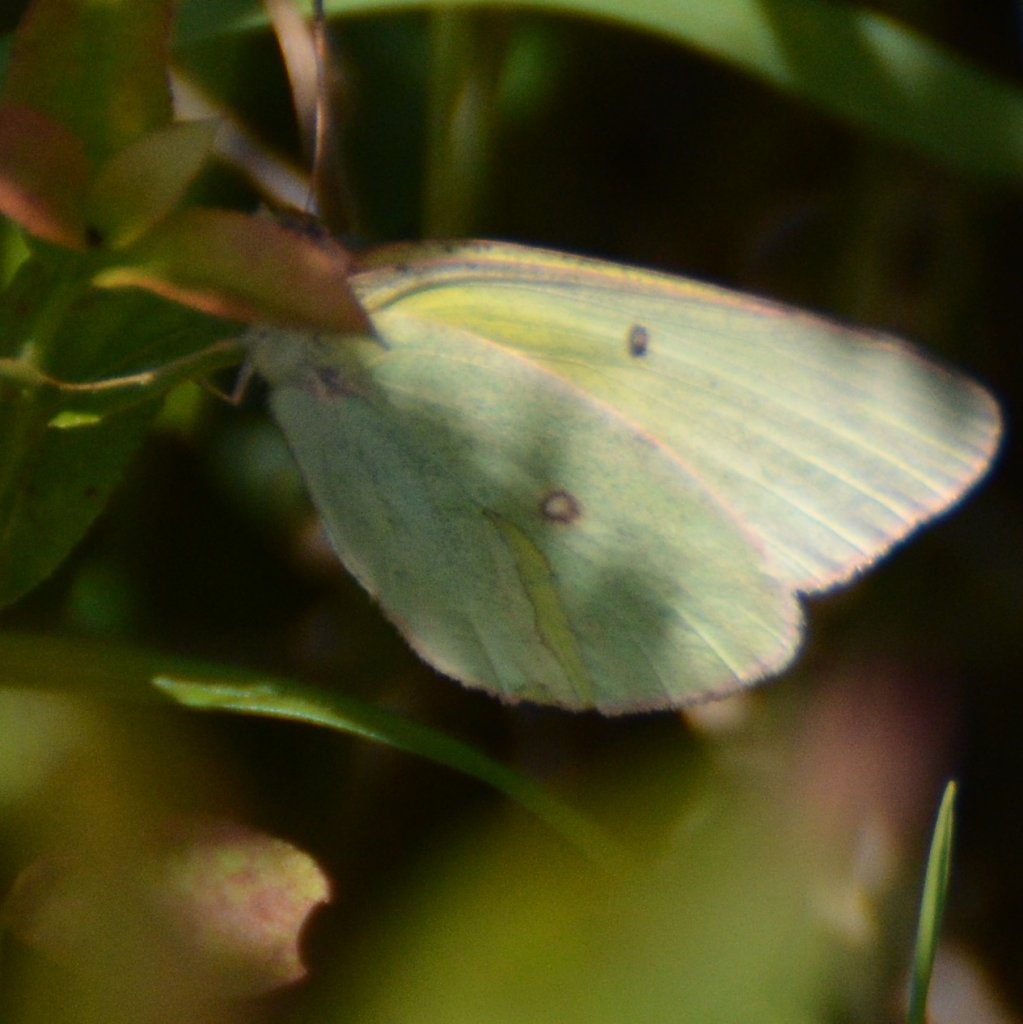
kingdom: Animalia
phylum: Arthropoda
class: Insecta
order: Lepidoptera
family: Pieridae
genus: Colias
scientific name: Colias
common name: Clouded Yellows
